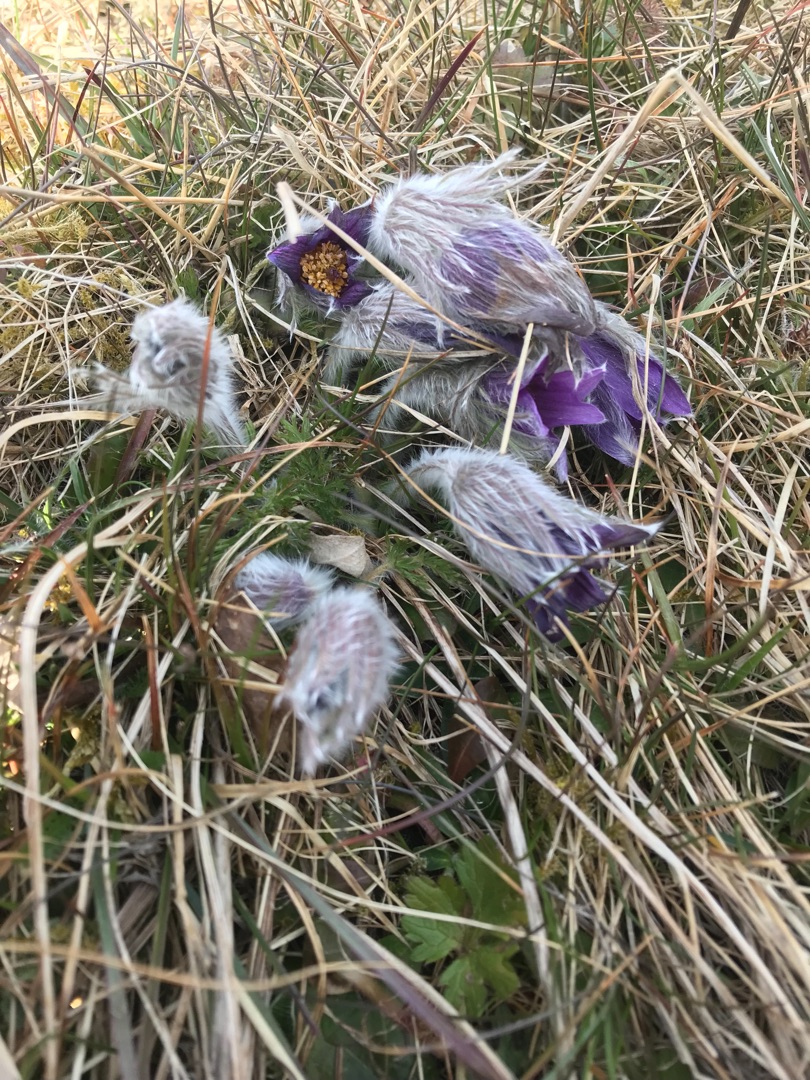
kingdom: Plantae
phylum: Tracheophyta
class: Magnoliopsida
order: Ranunculales
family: Ranunculaceae
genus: Pulsatilla
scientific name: Pulsatilla vulgaris
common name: Opret kobjælde
